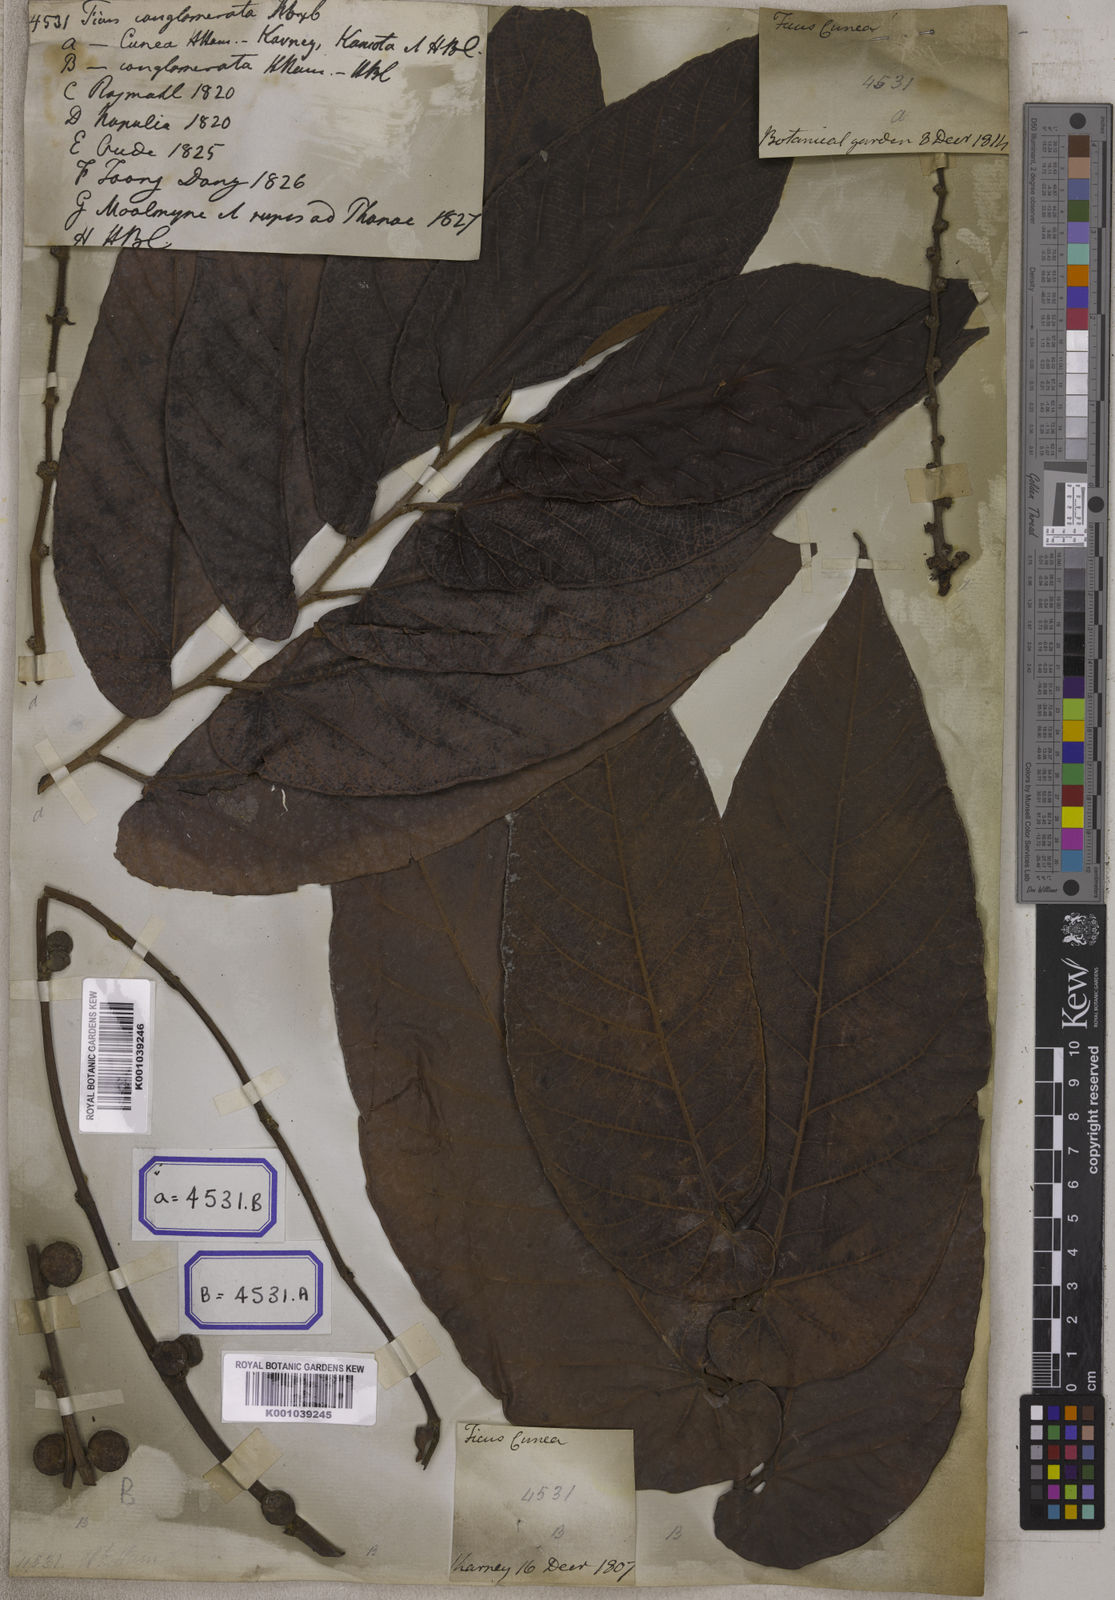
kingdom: Plantae
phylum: Tracheophyta
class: Magnoliopsida
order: Rosales
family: Moraceae
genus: Ficus
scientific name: Ficus semicordata
